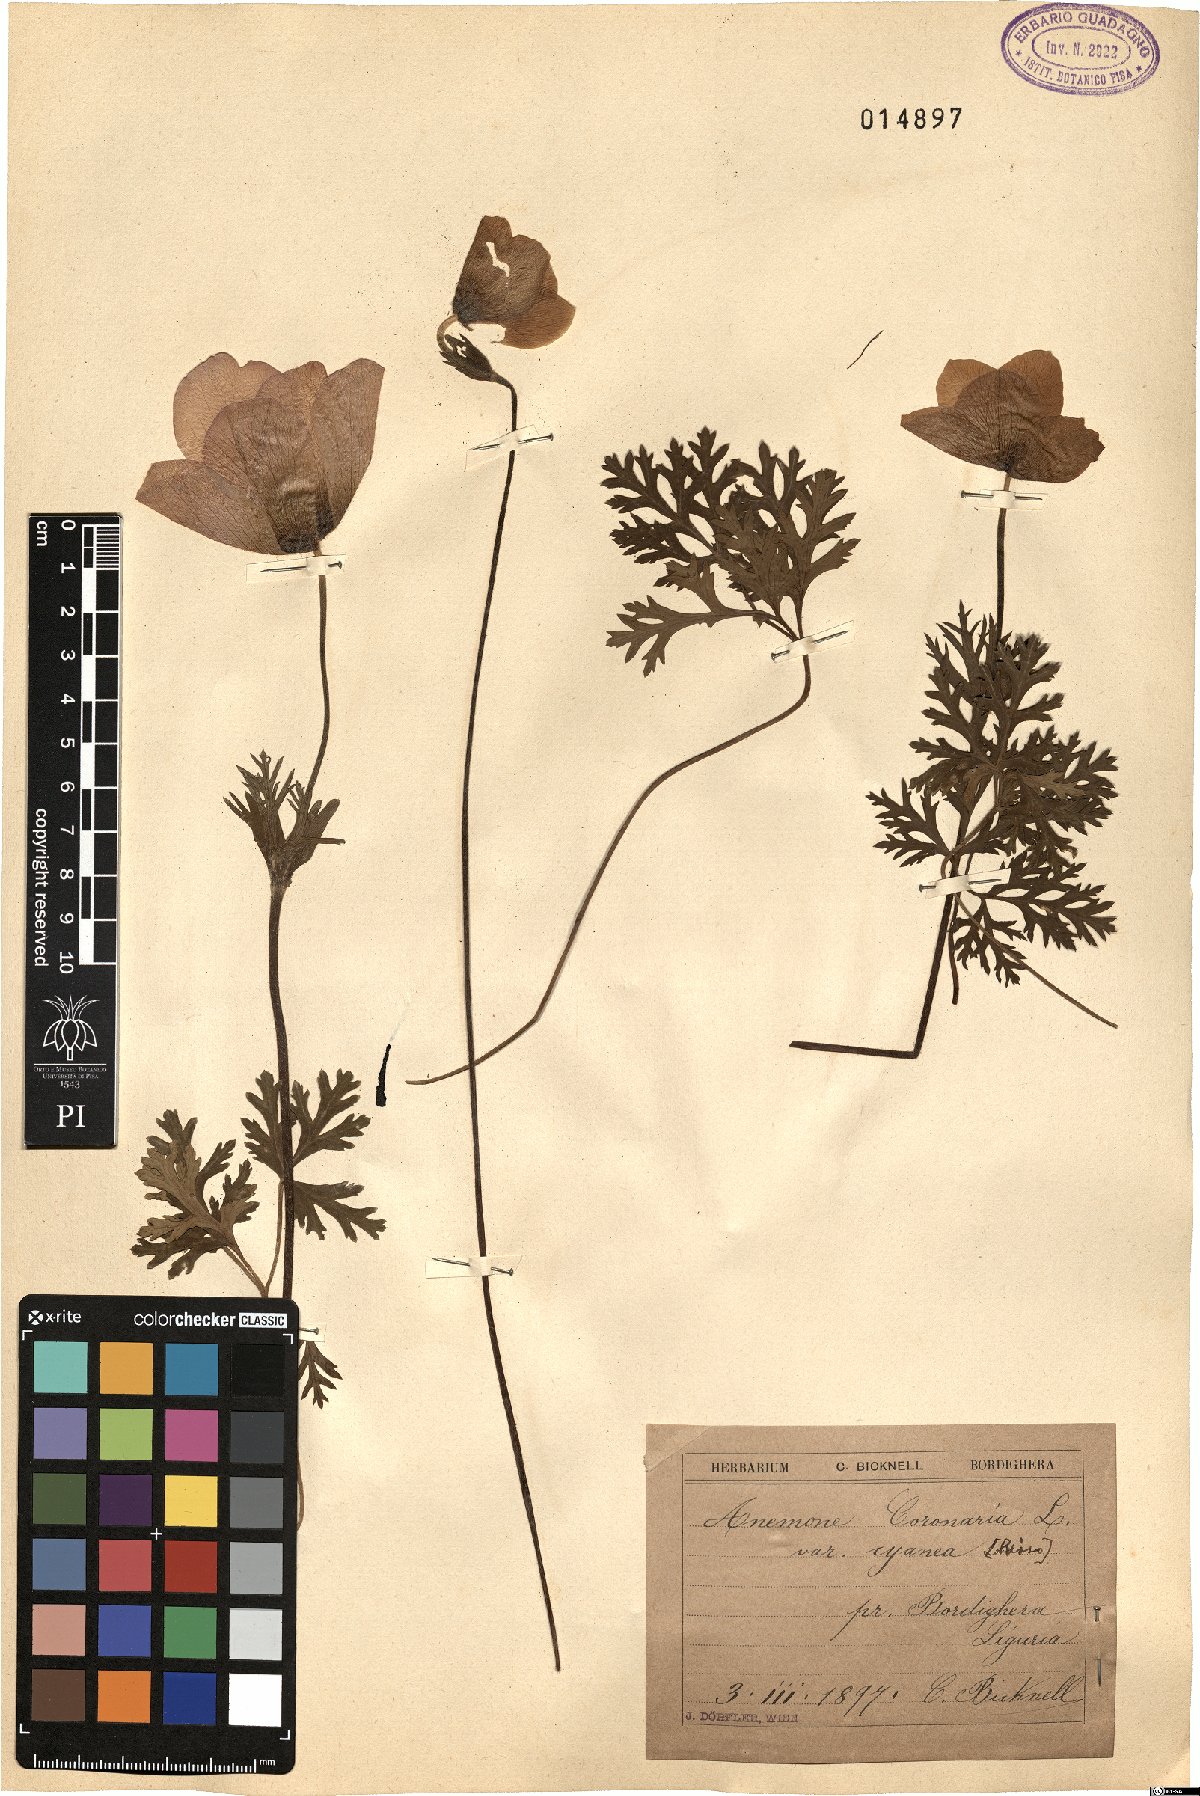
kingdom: Plantae
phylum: Tracheophyta
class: Magnoliopsida
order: Ranunculales
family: Ranunculaceae
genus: Anemone
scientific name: Anemone coronaria
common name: Poppy anemone
